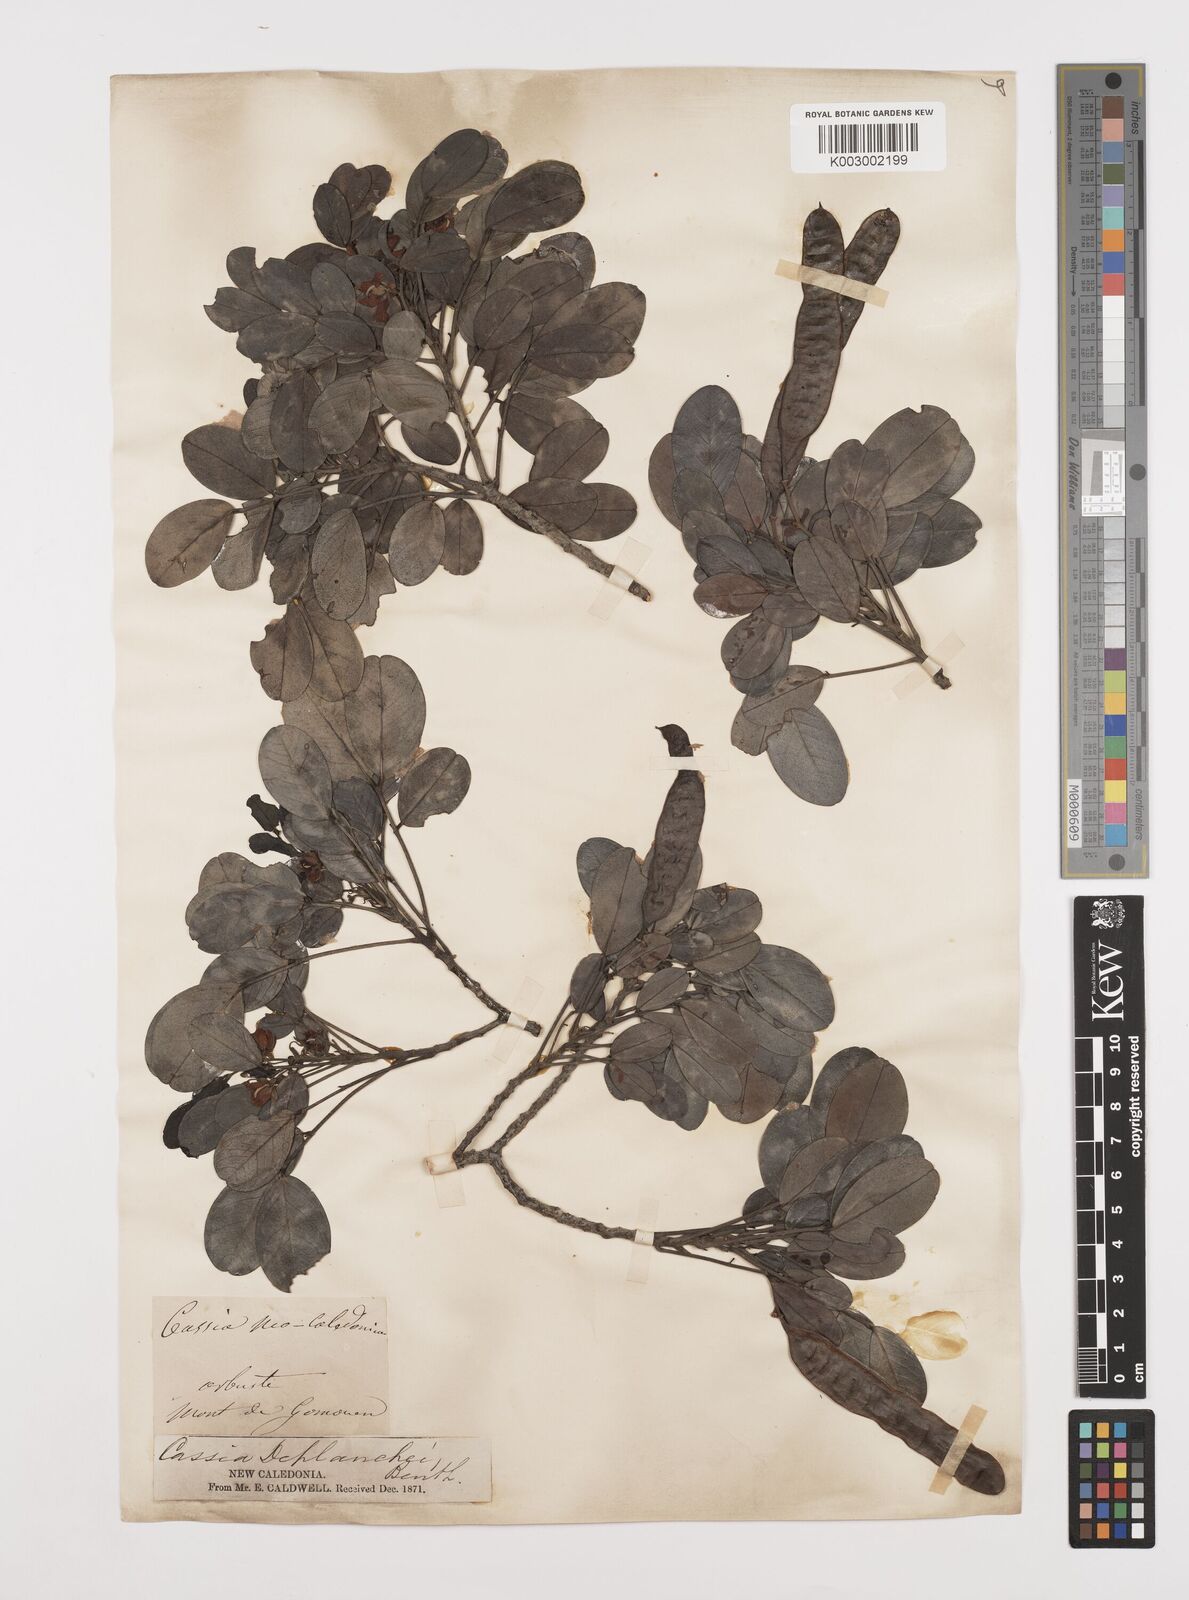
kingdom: Plantae
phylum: Tracheophyta
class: Magnoliopsida
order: Fabales
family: Fabaceae
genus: Senna
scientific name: Senna gaudichaudii
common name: Climbing cassia
